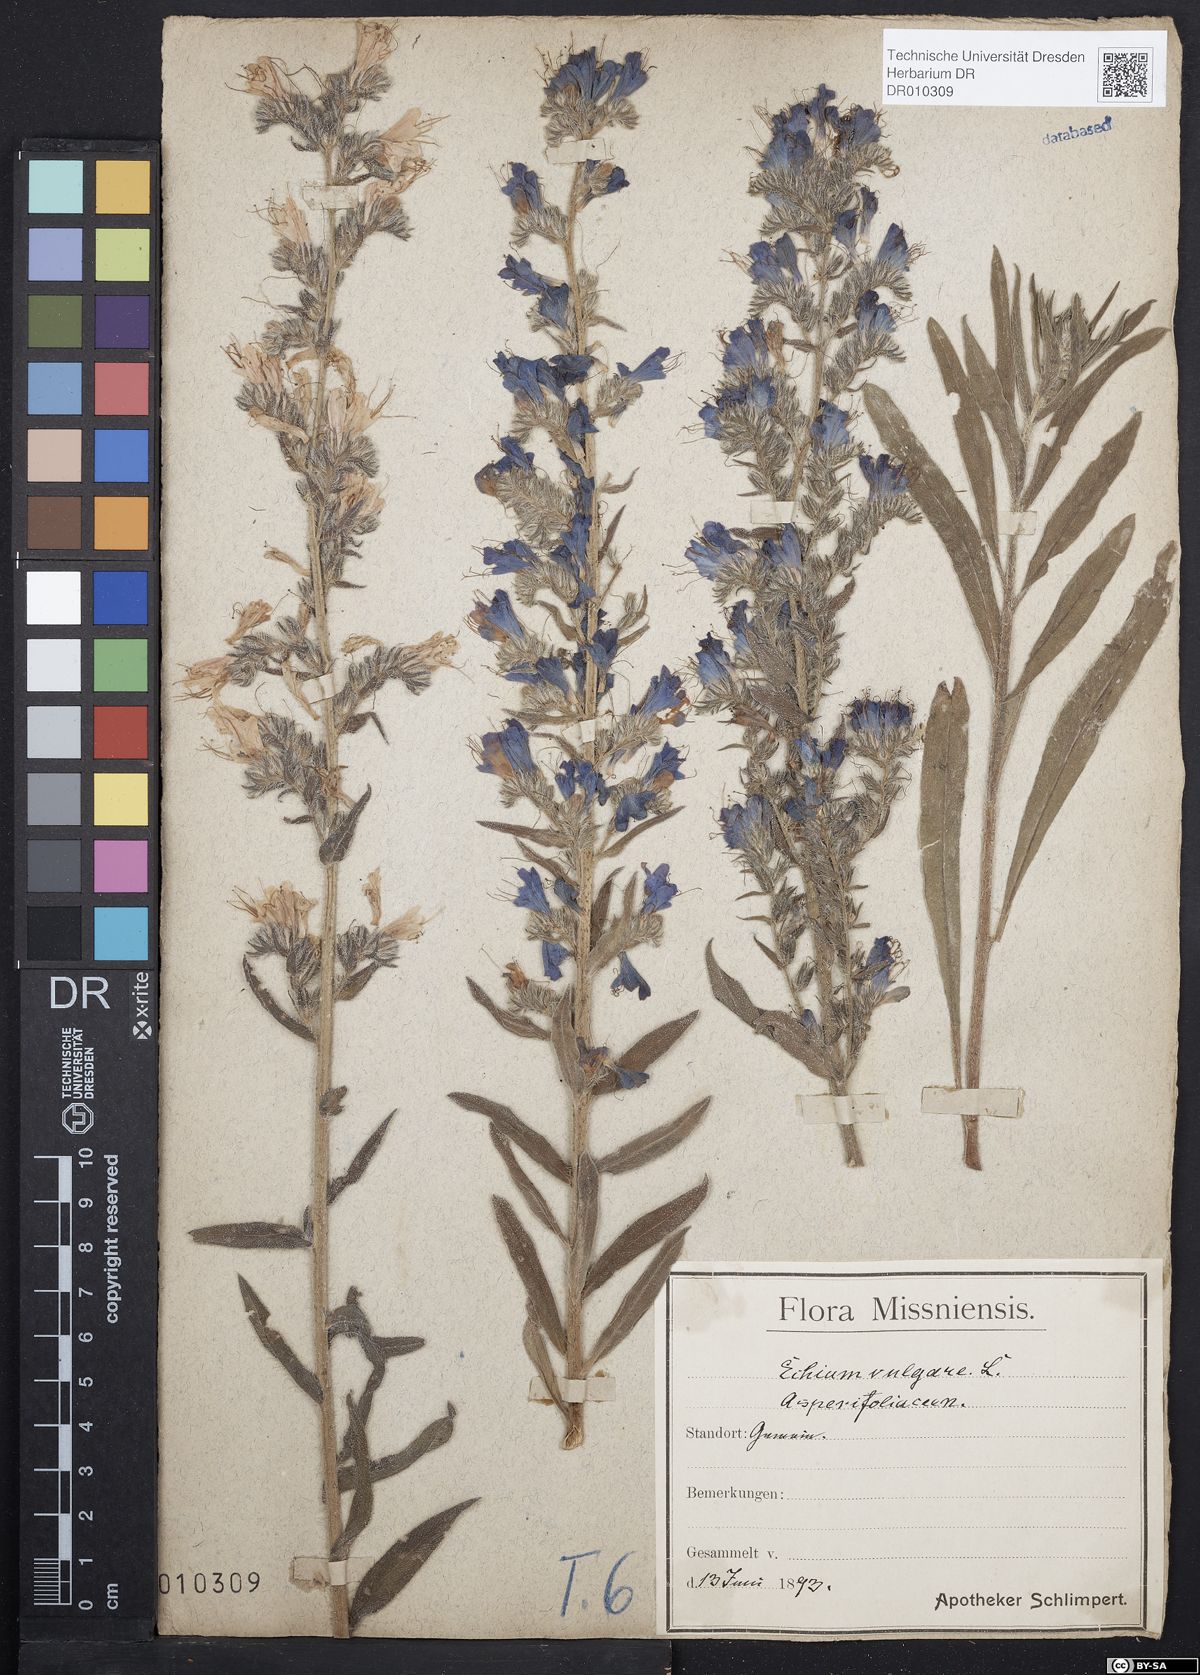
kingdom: Plantae
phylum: Tracheophyta
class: Magnoliopsida
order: Boraginales
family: Boraginaceae
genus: Echium
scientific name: Echium vulgare
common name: Common viper's bugloss
